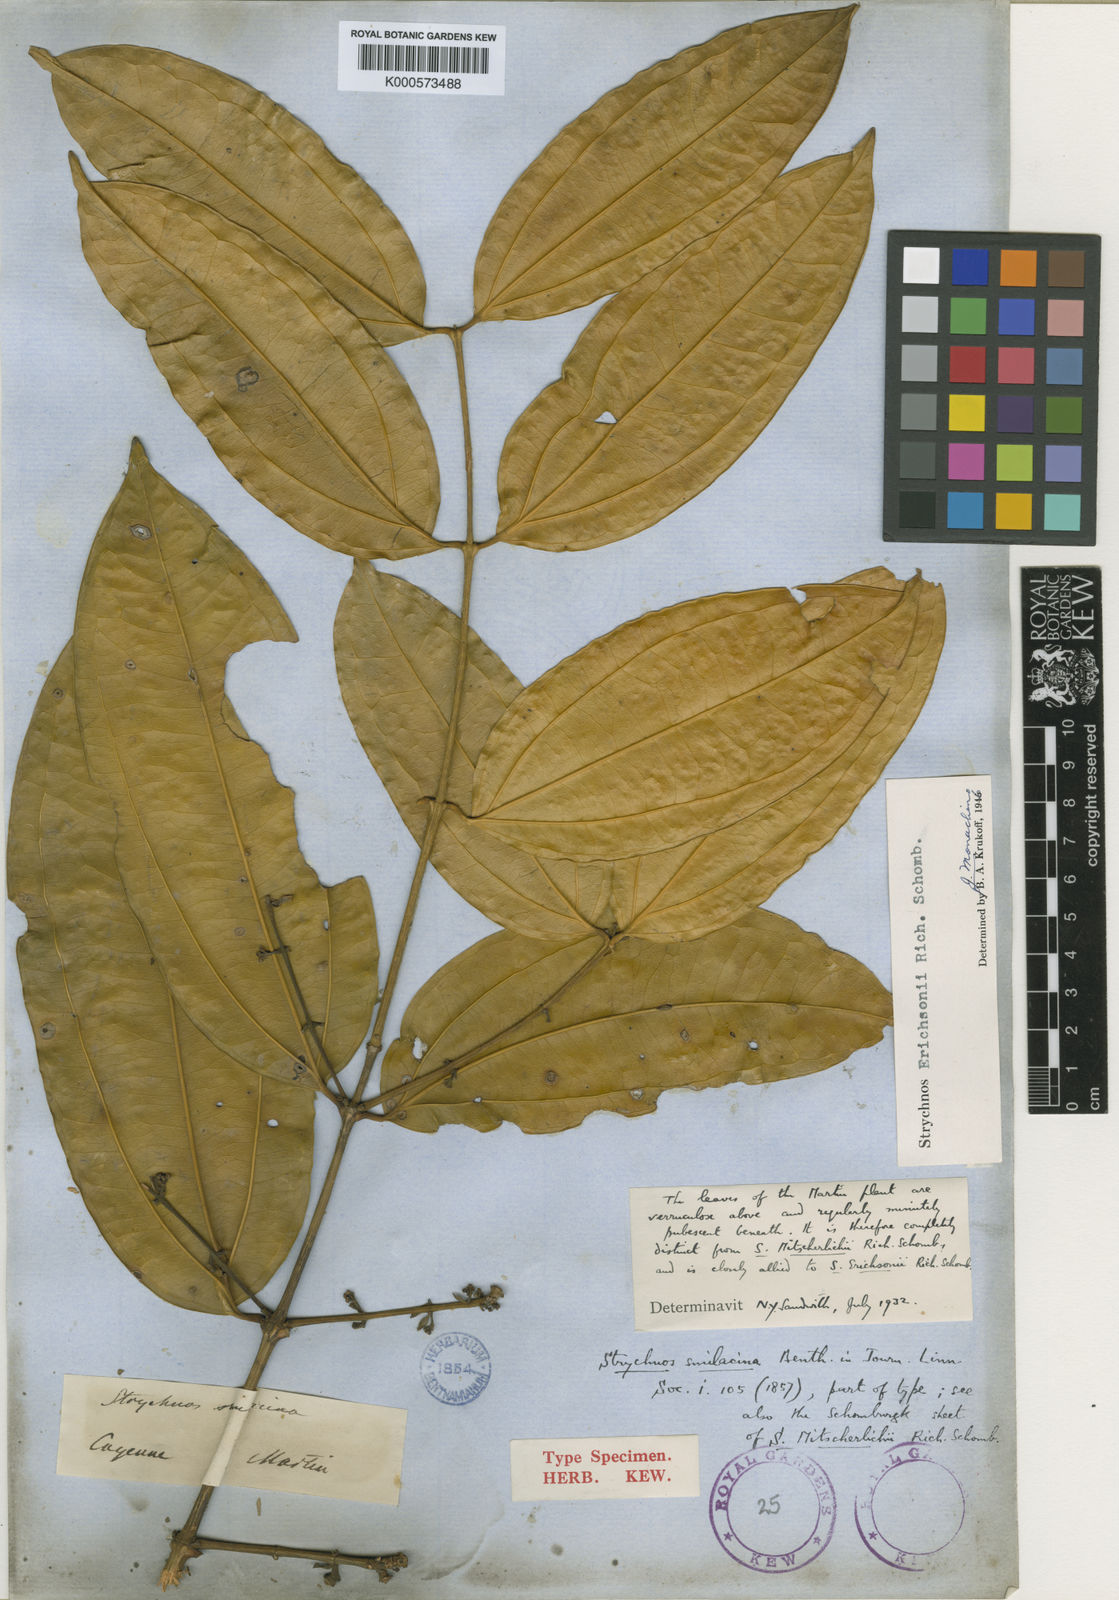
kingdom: Plantae
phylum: Tracheophyta
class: Magnoliopsida
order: Gentianales
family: Loganiaceae
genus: Strychnos
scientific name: Strychnos erichsonii
